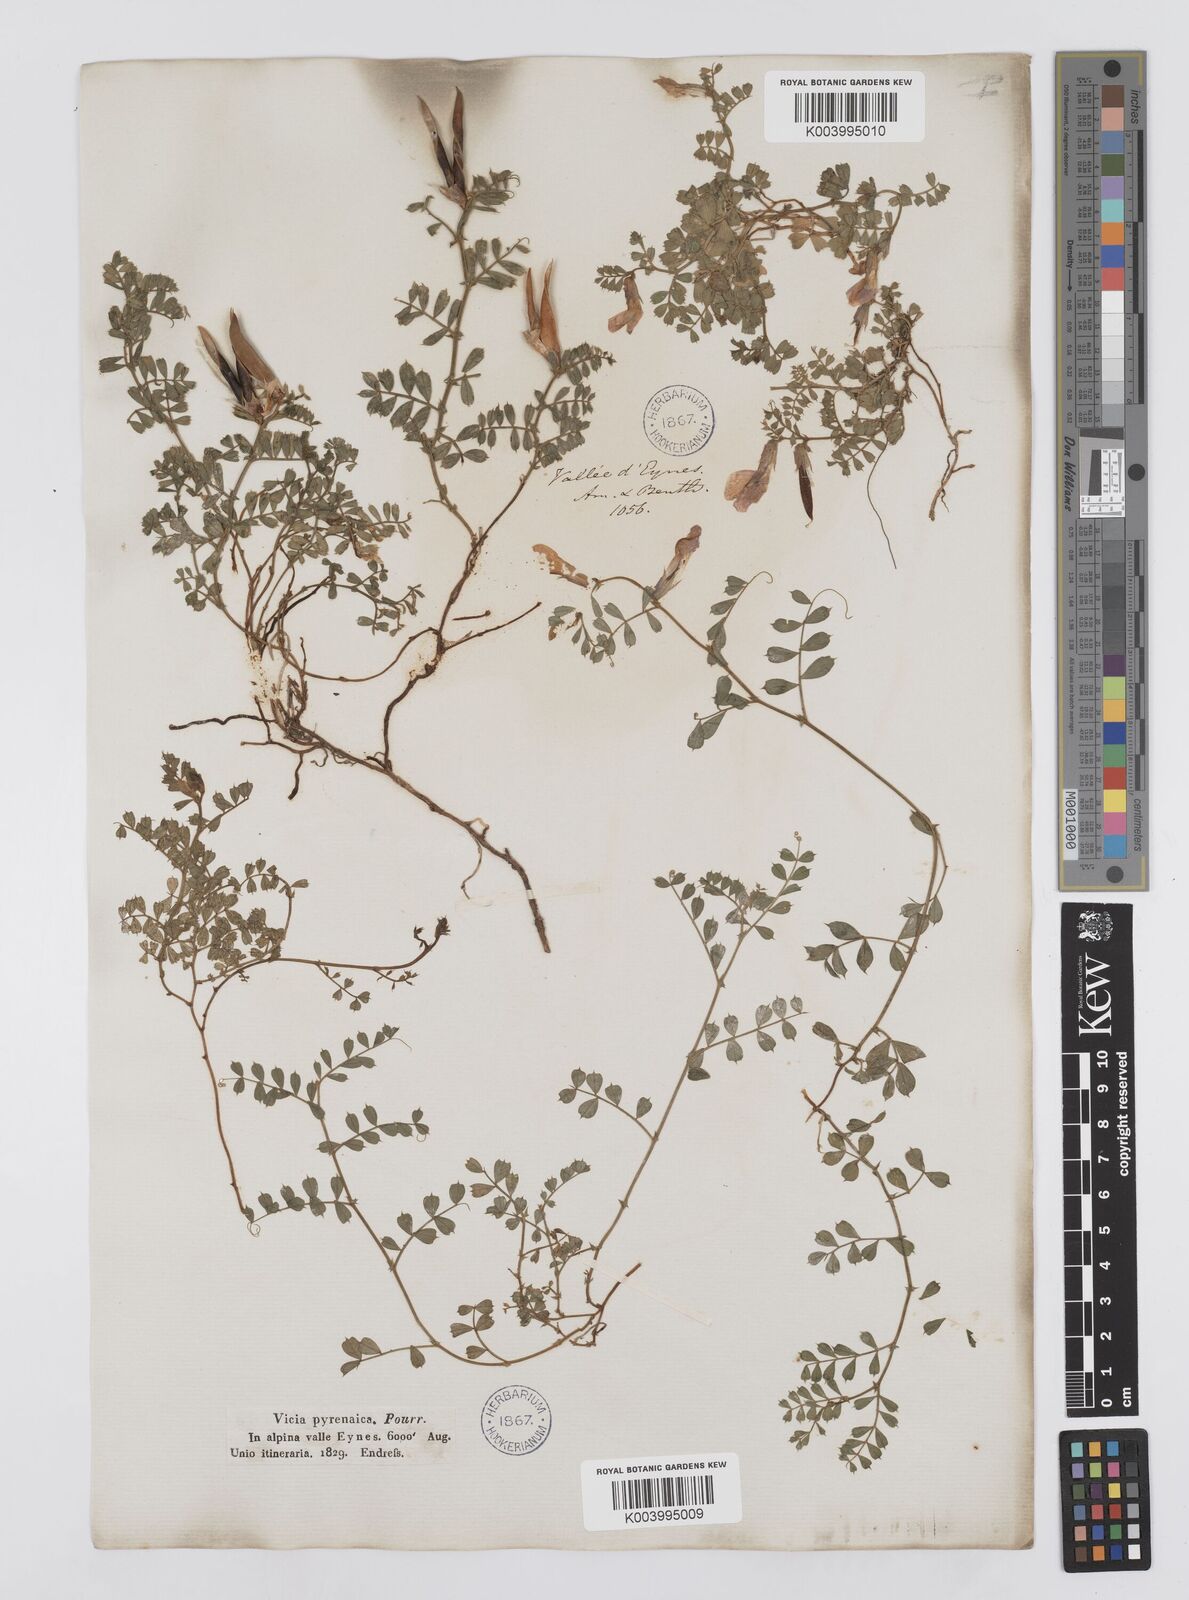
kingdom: Plantae
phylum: Tracheophyta
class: Magnoliopsida
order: Fabales
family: Fabaceae
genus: Vicia
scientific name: Vicia pyrenaica
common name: Pyrenean vetch
